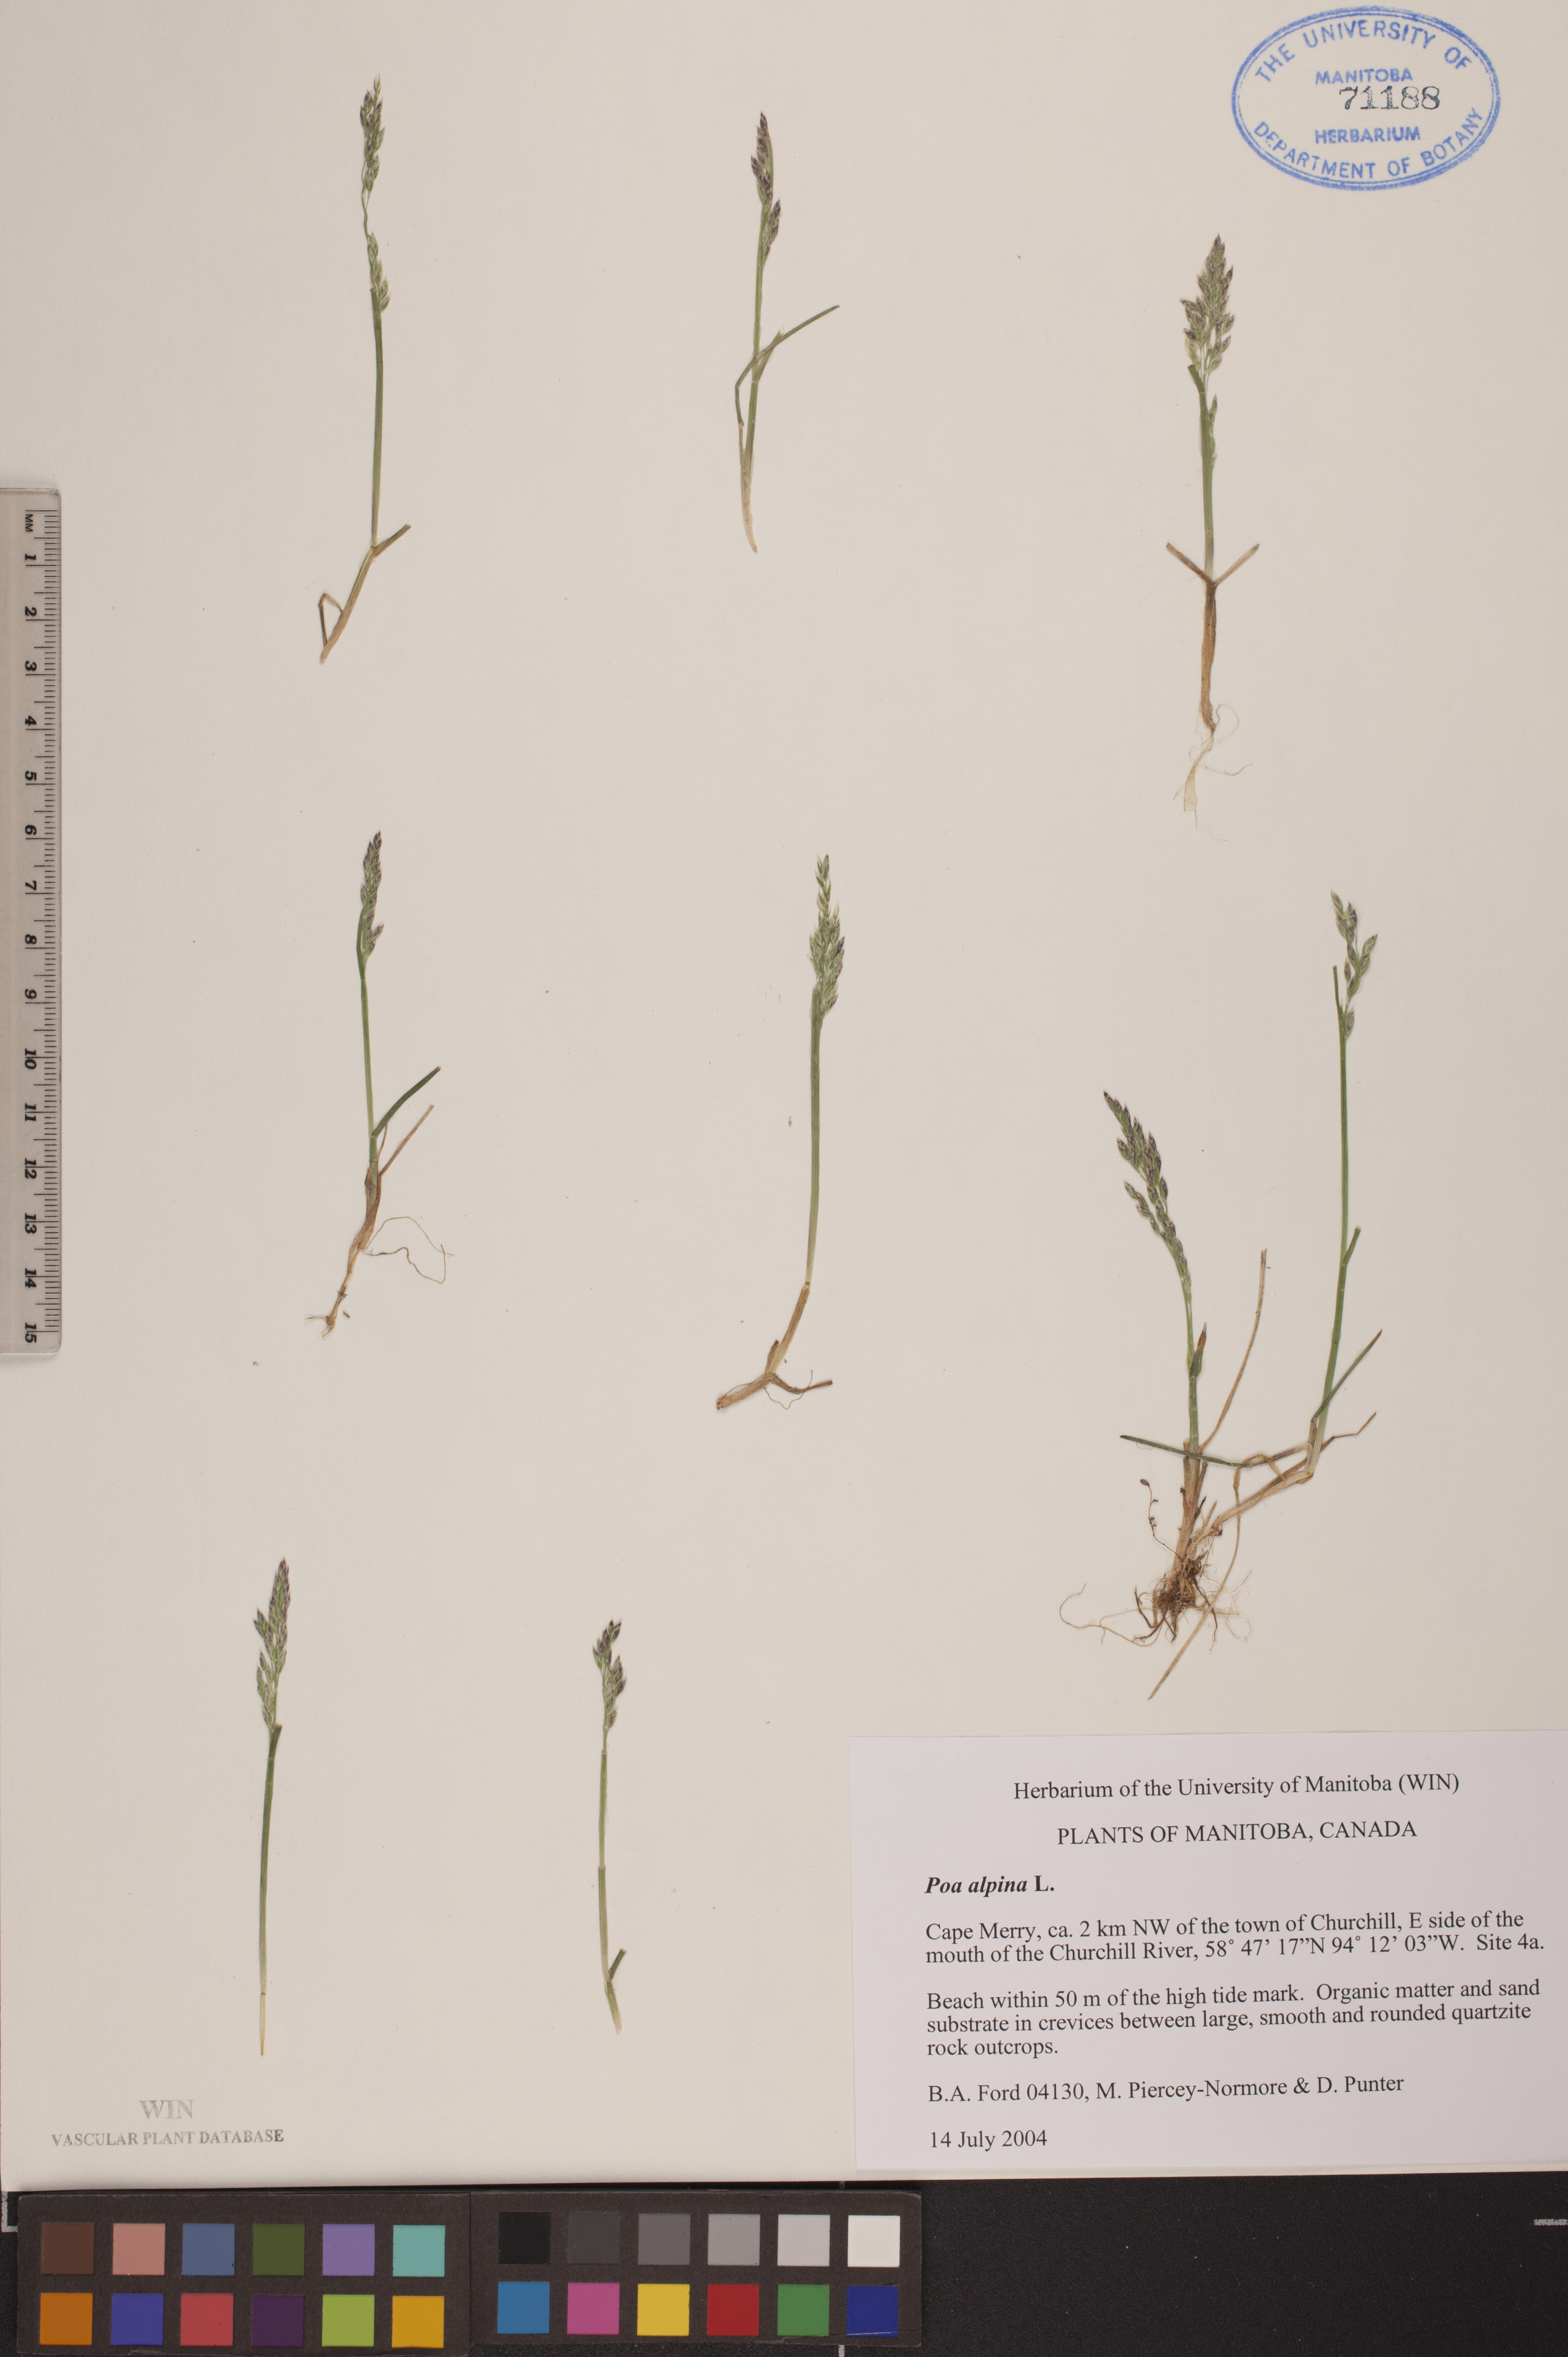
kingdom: Plantae
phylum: Tracheophyta
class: Liliopsida
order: Poales
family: Poaceae
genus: Poa
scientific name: Poa alpina
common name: Alpine bluegrass
